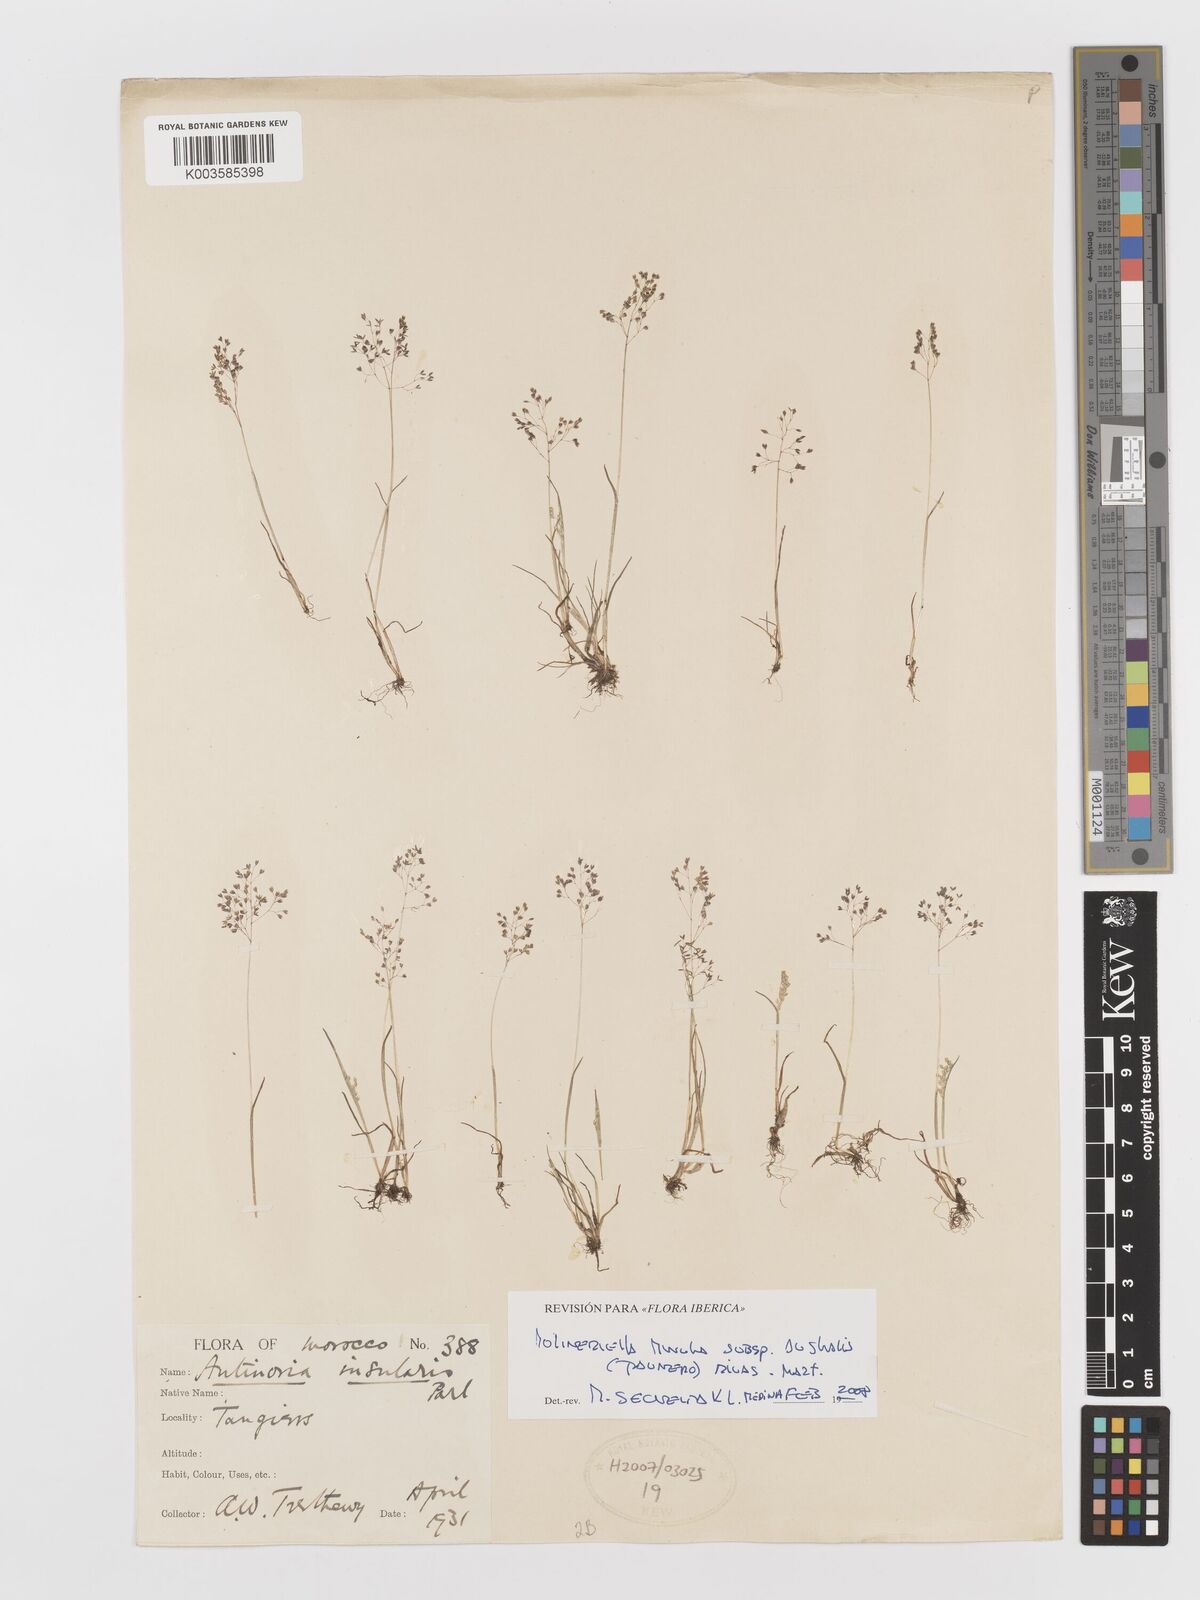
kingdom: Plantae
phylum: Tracheophyta
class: Liliopsida
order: Poales
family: Poaceae
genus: Antinoria
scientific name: Antinoria insularis
